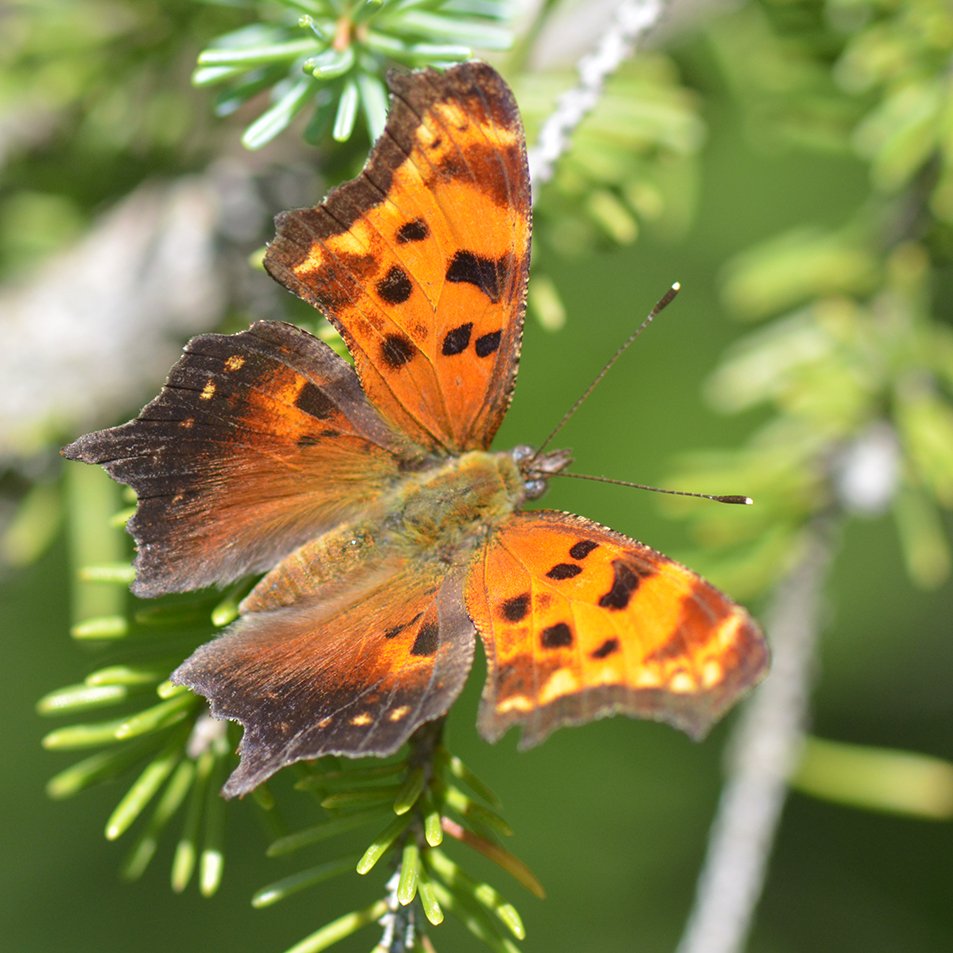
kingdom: Animalia
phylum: Arthropoda
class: Insecta
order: Lepidoptera
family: Nymphalidae
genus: Polygonia
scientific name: Polygonia progne
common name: Gray Comma
